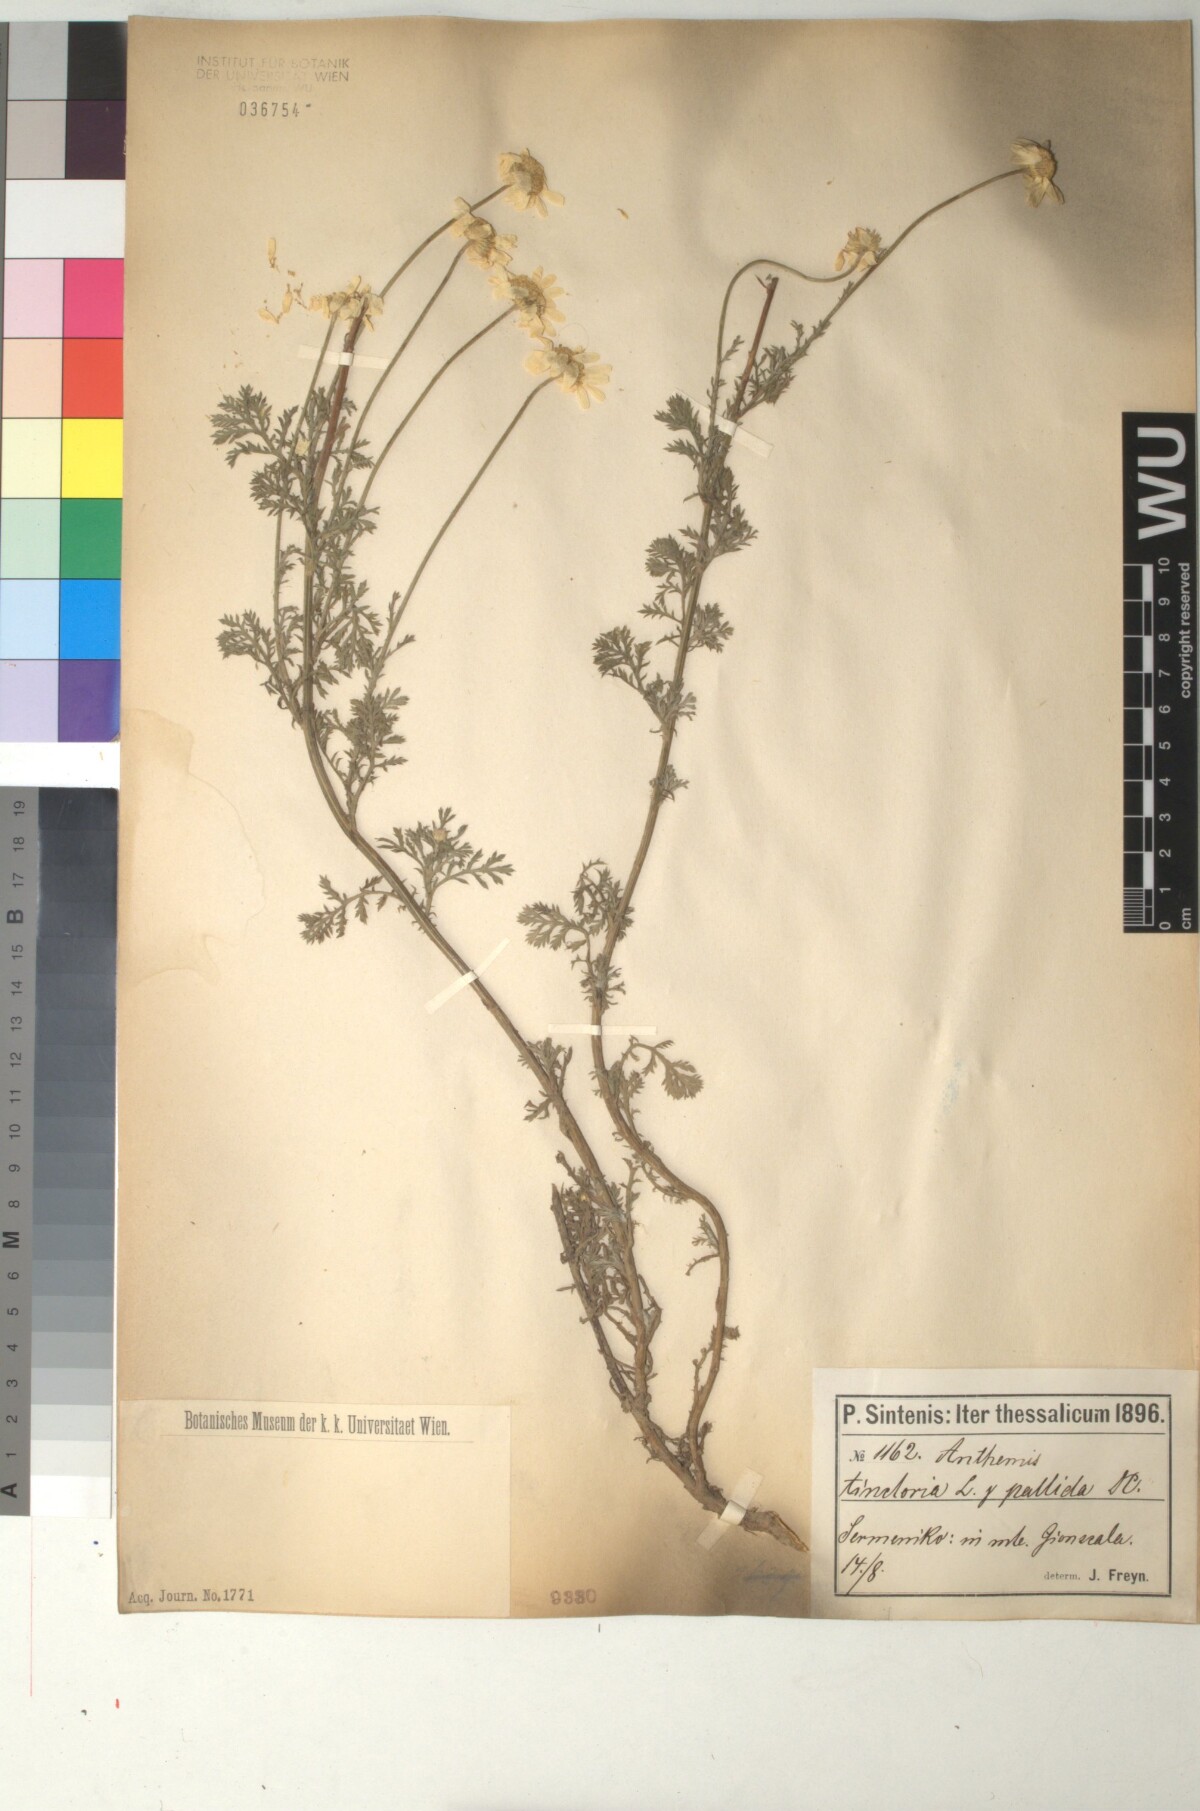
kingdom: Plantae
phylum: Tracheophyta
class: Magnoliopsida
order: Asterales
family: Asteraceae
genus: Cota
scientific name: Cota tinctoria
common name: Golden chamomile
